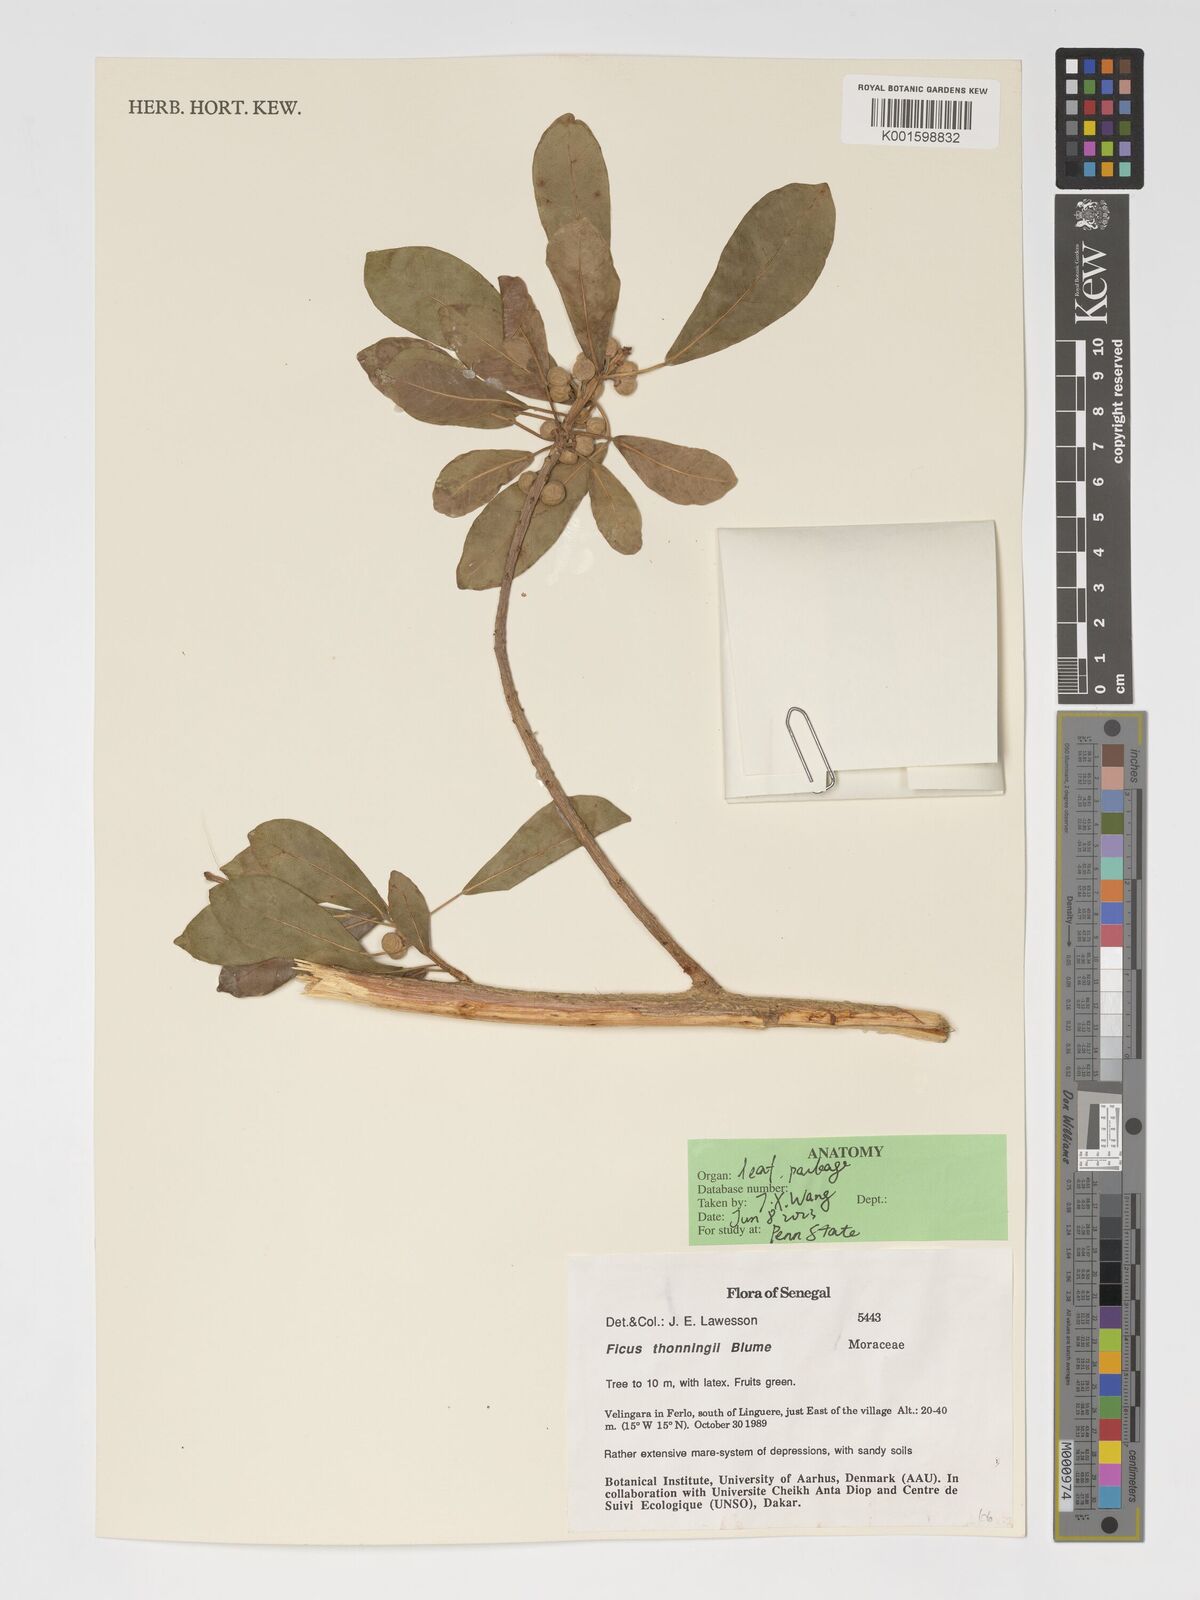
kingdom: Plantae
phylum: Tracheophyta
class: Magnoliopsida
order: Rosales
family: Moraceae
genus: Ficus
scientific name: Ficus thonningii
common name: Fig
